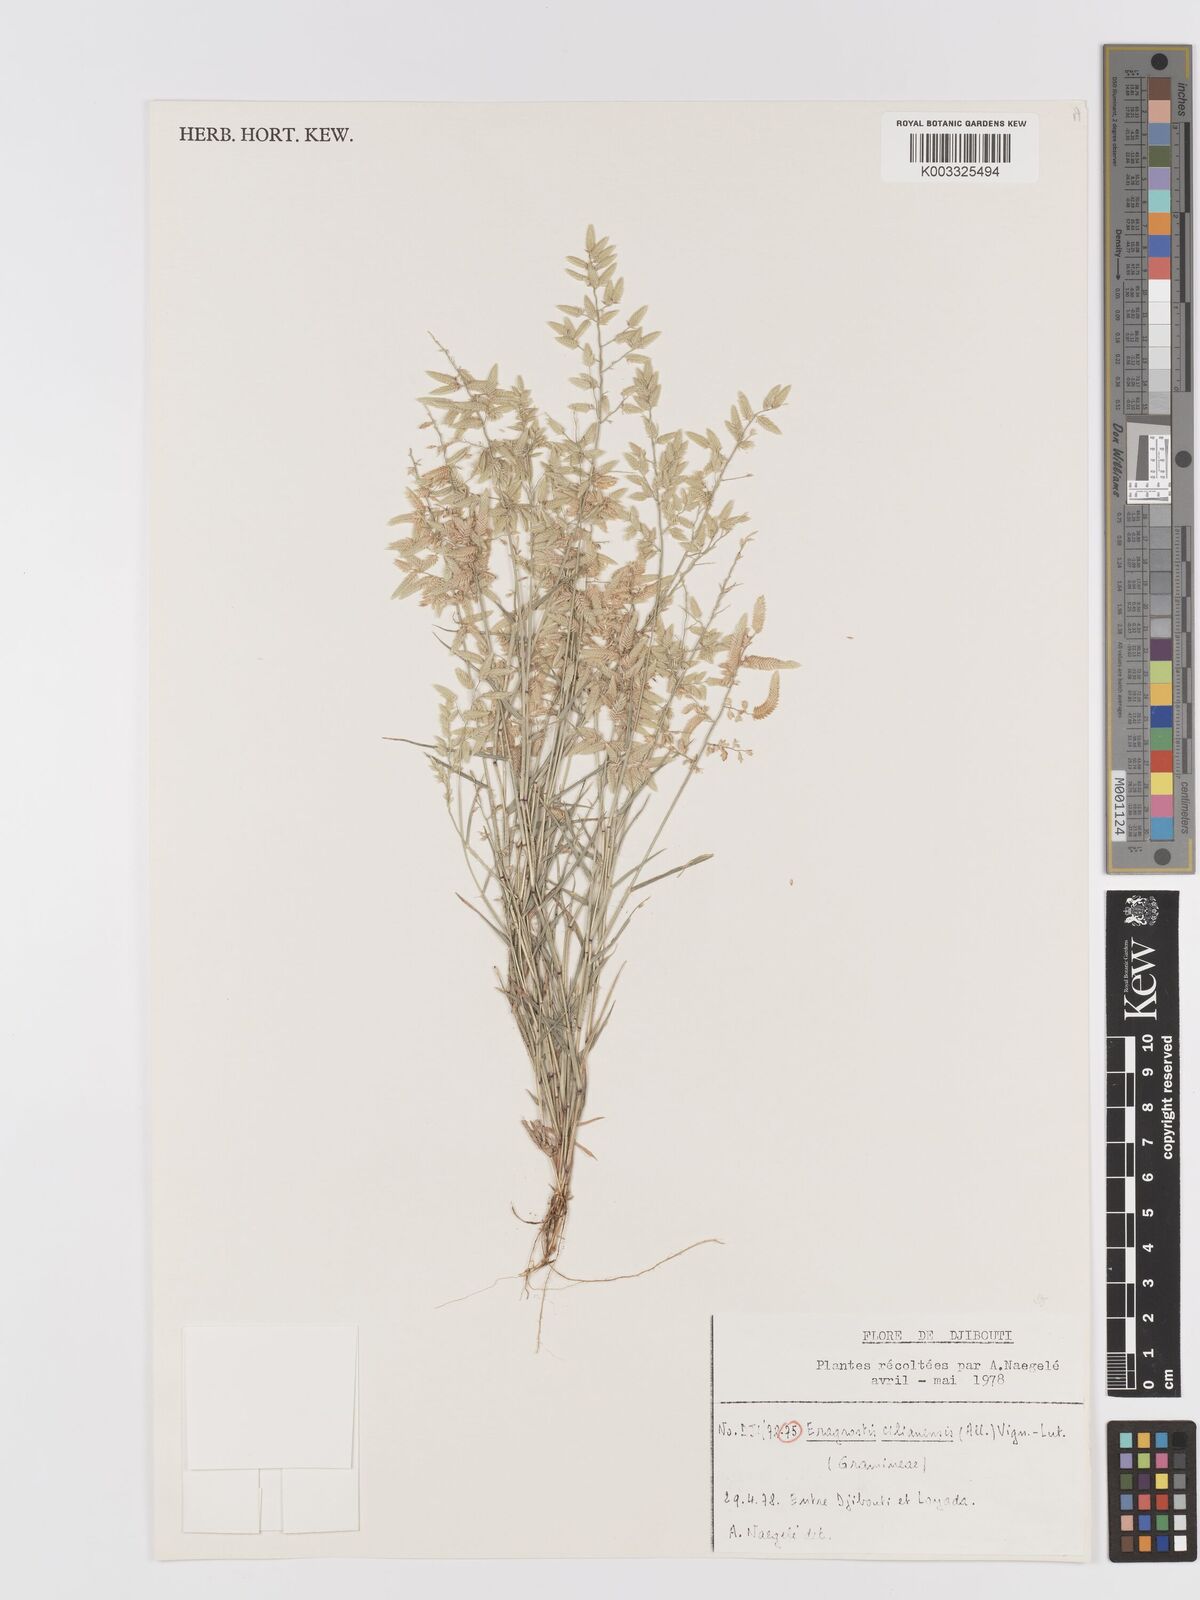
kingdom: Plantae
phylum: Tracheophyta
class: Liliopsida
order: Poales
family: Poaceae
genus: Eragrostis
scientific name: Eragrostis cilianensis
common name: Stinkgrass
